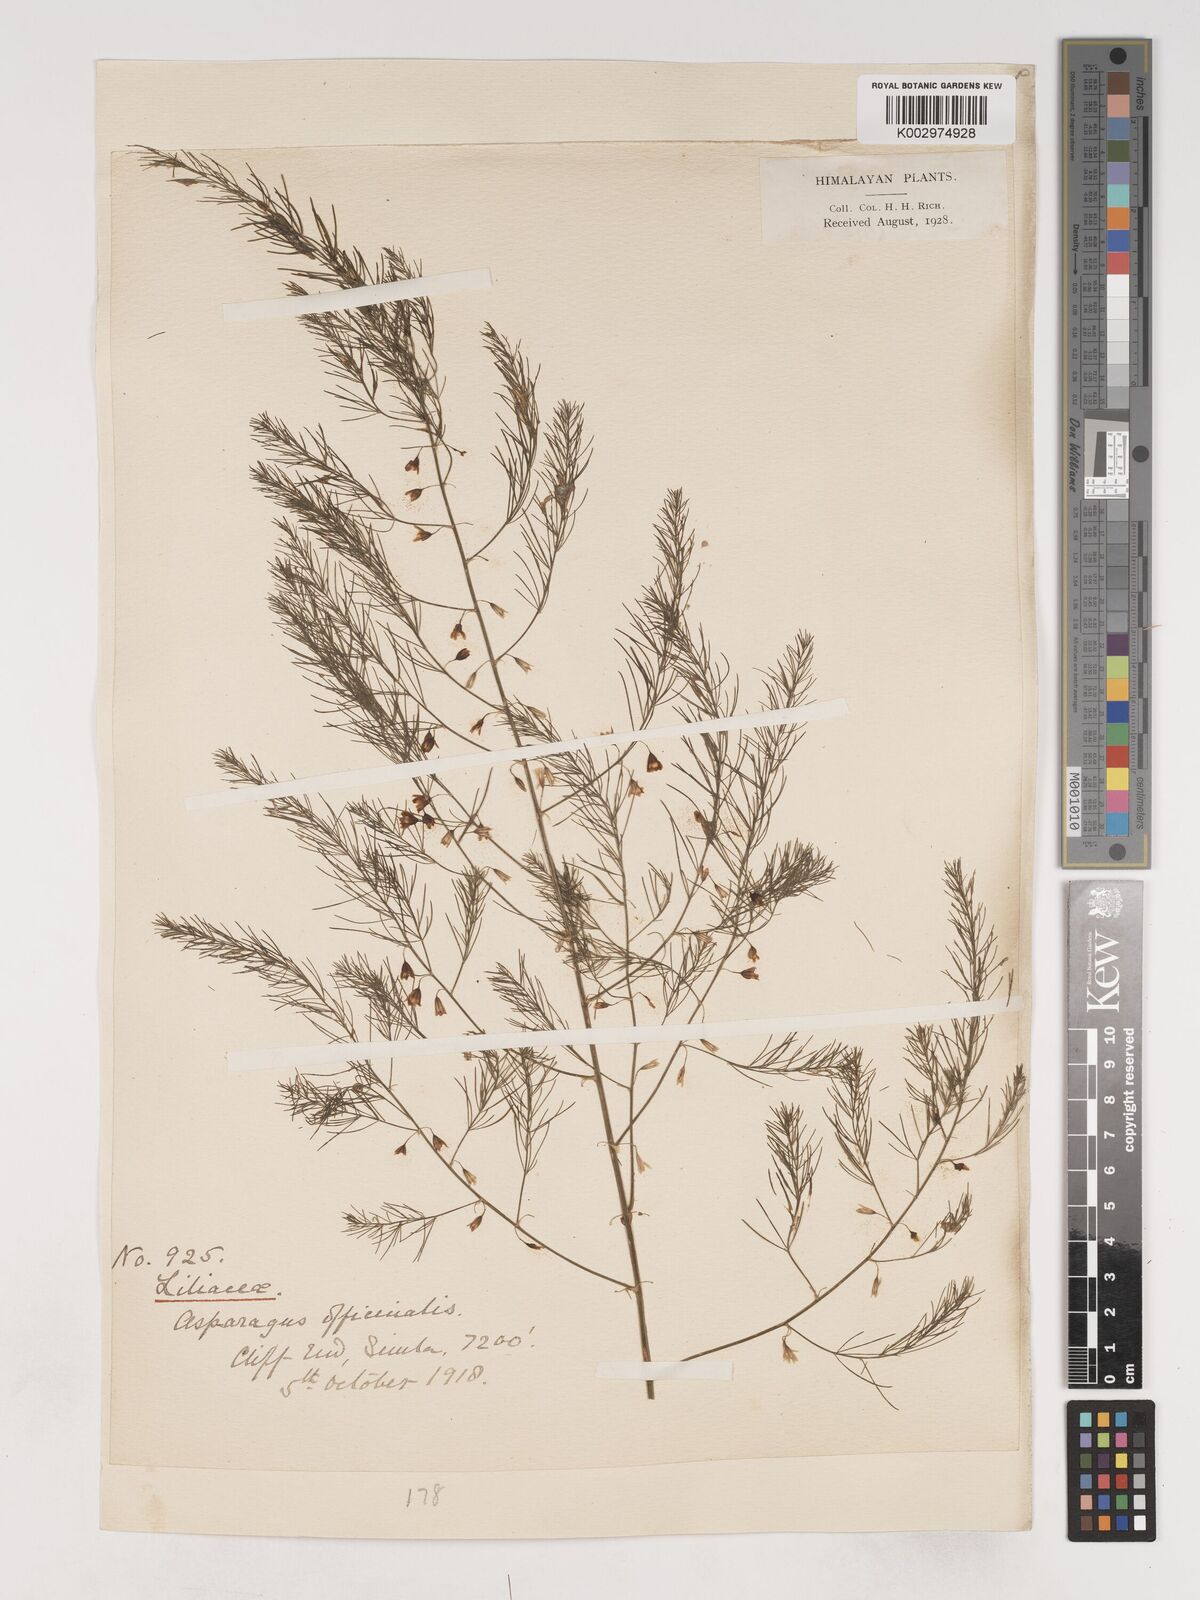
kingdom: Plantae
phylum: Tracheophyta
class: Liliopsida
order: Asparagales
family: Asparagaceae
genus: Asparagus
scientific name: Asparagus officinalis
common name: Garden asparagus
